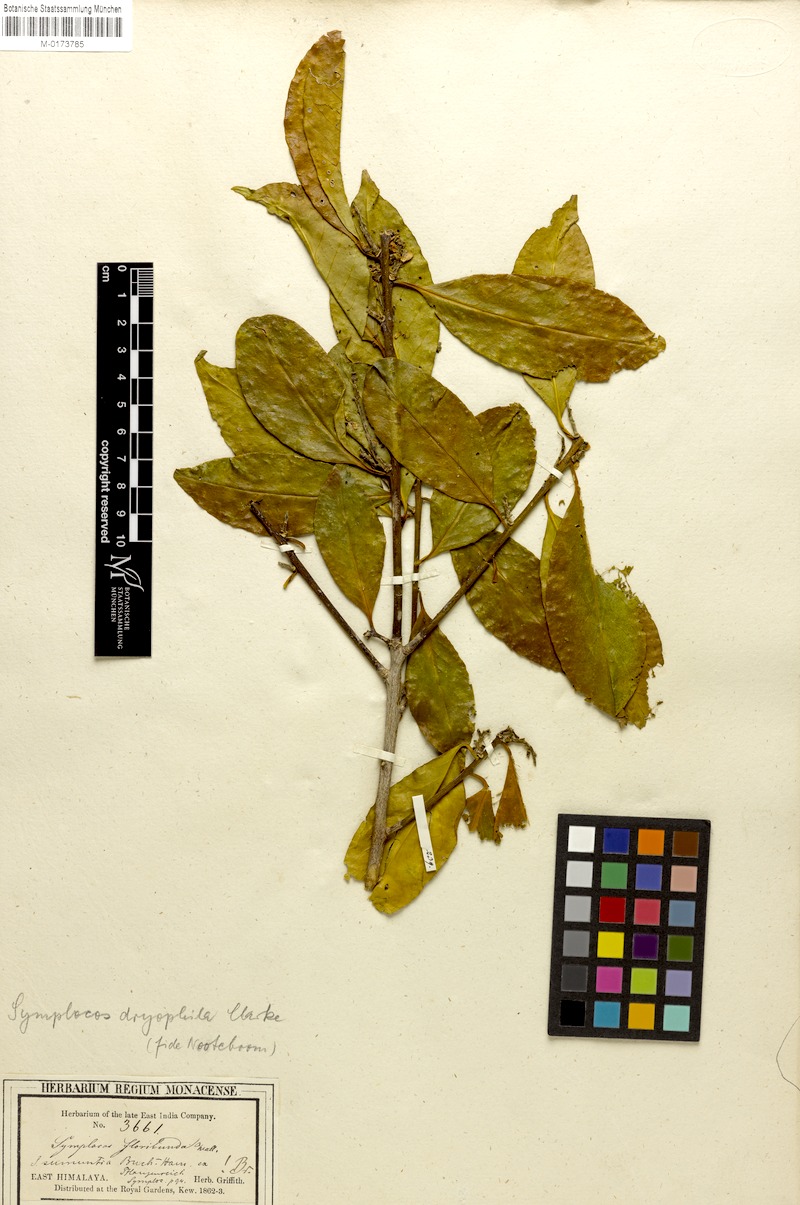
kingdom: Plantae
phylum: Tracheophyta
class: Magnoliopsida
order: Ericales
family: Symplocaceae
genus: Symplocos
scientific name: Symplocos dryophila
